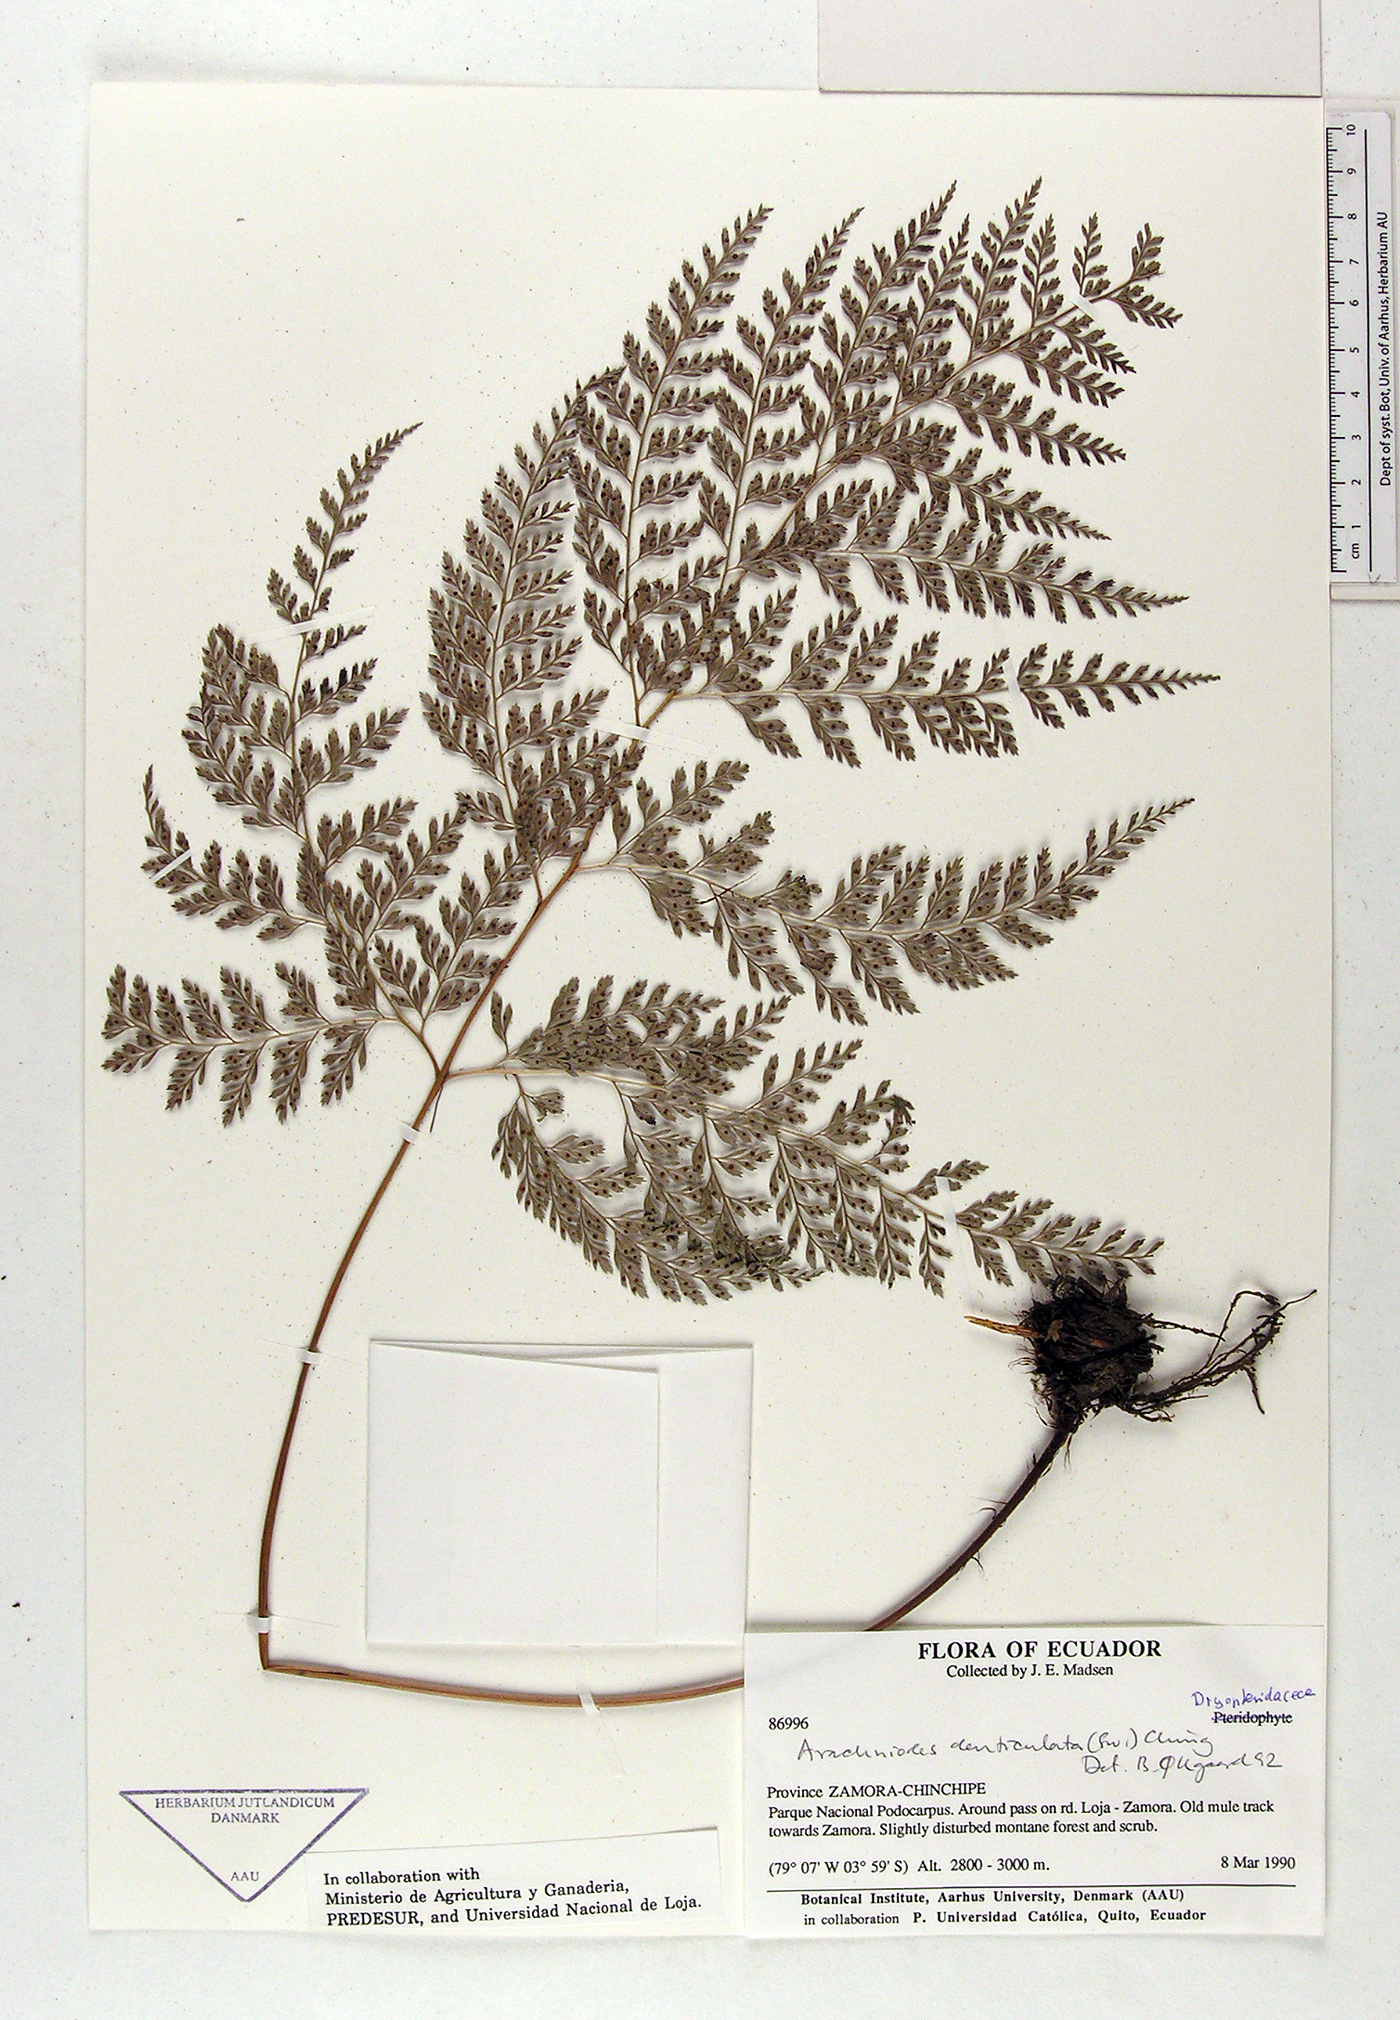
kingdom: Plantae
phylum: Tracheophyta
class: Polypodiopsida
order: Polypodiales
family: Dryopteridaceae
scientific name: Dryopteridaceae
